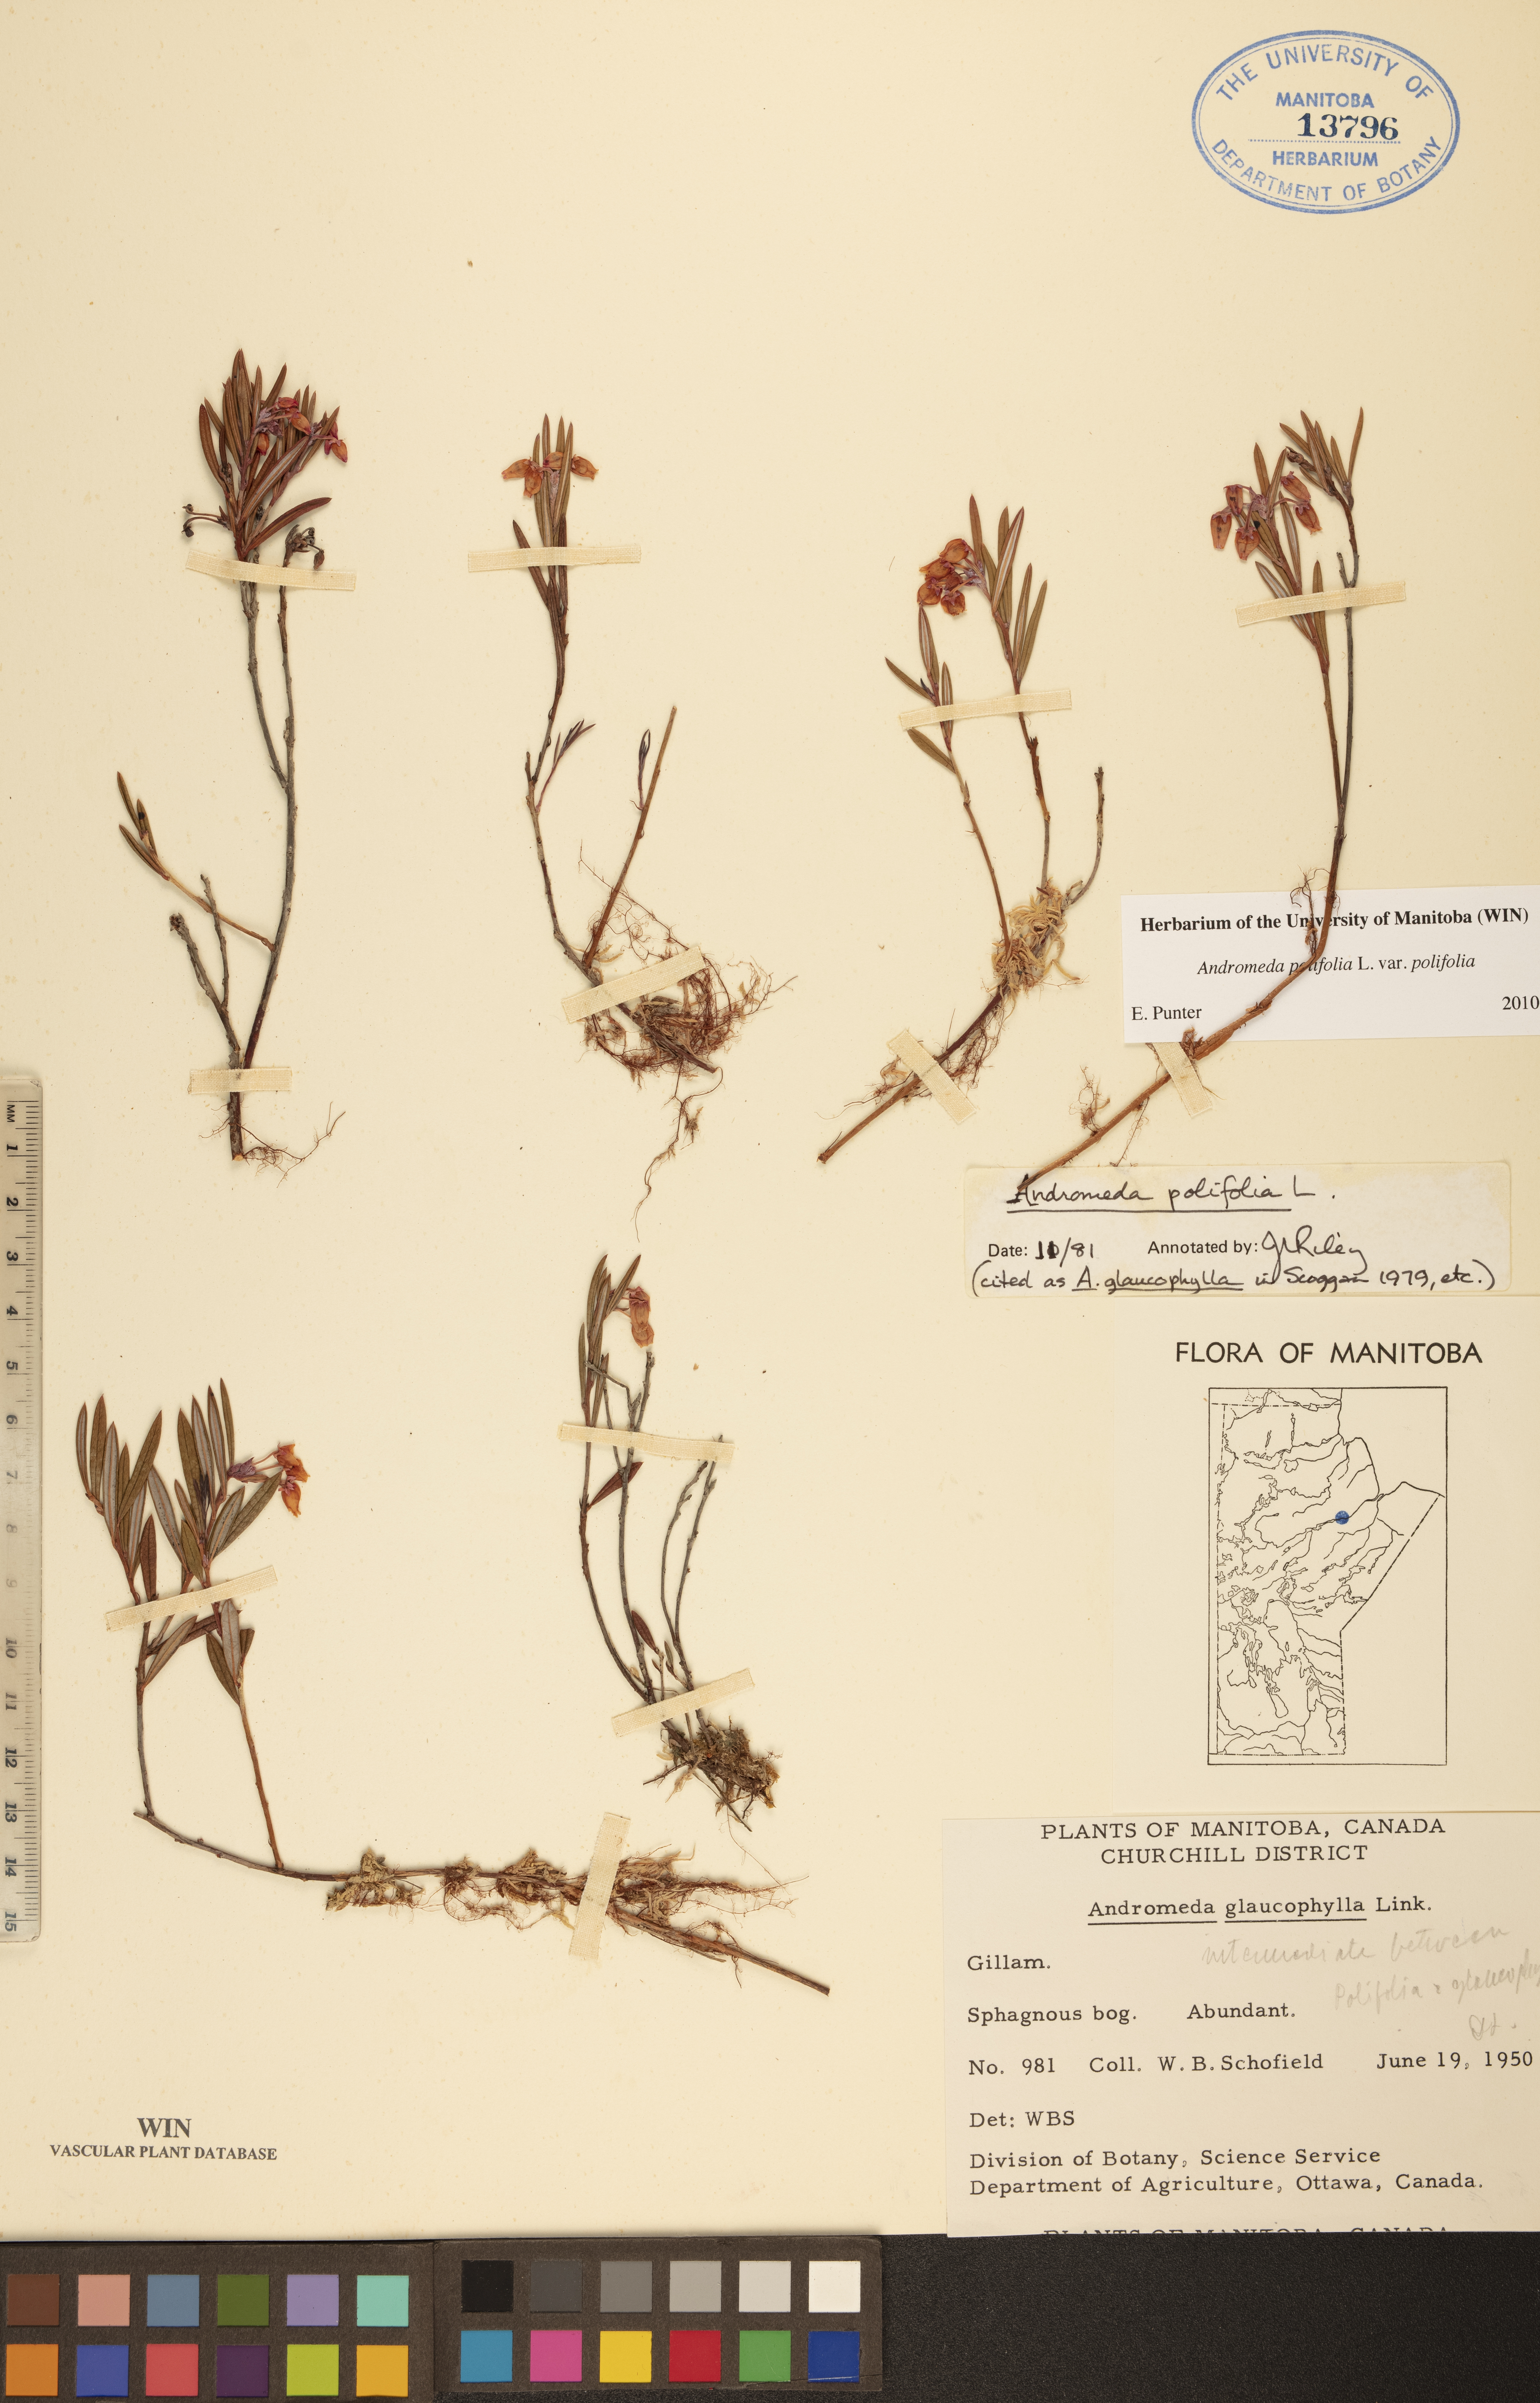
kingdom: Plantae
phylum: Tracheophyta
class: Magnoliopsida
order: Ericales
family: Ericaceae
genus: Andromeda
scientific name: Andromeda polifolia
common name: Bog-rosemary
